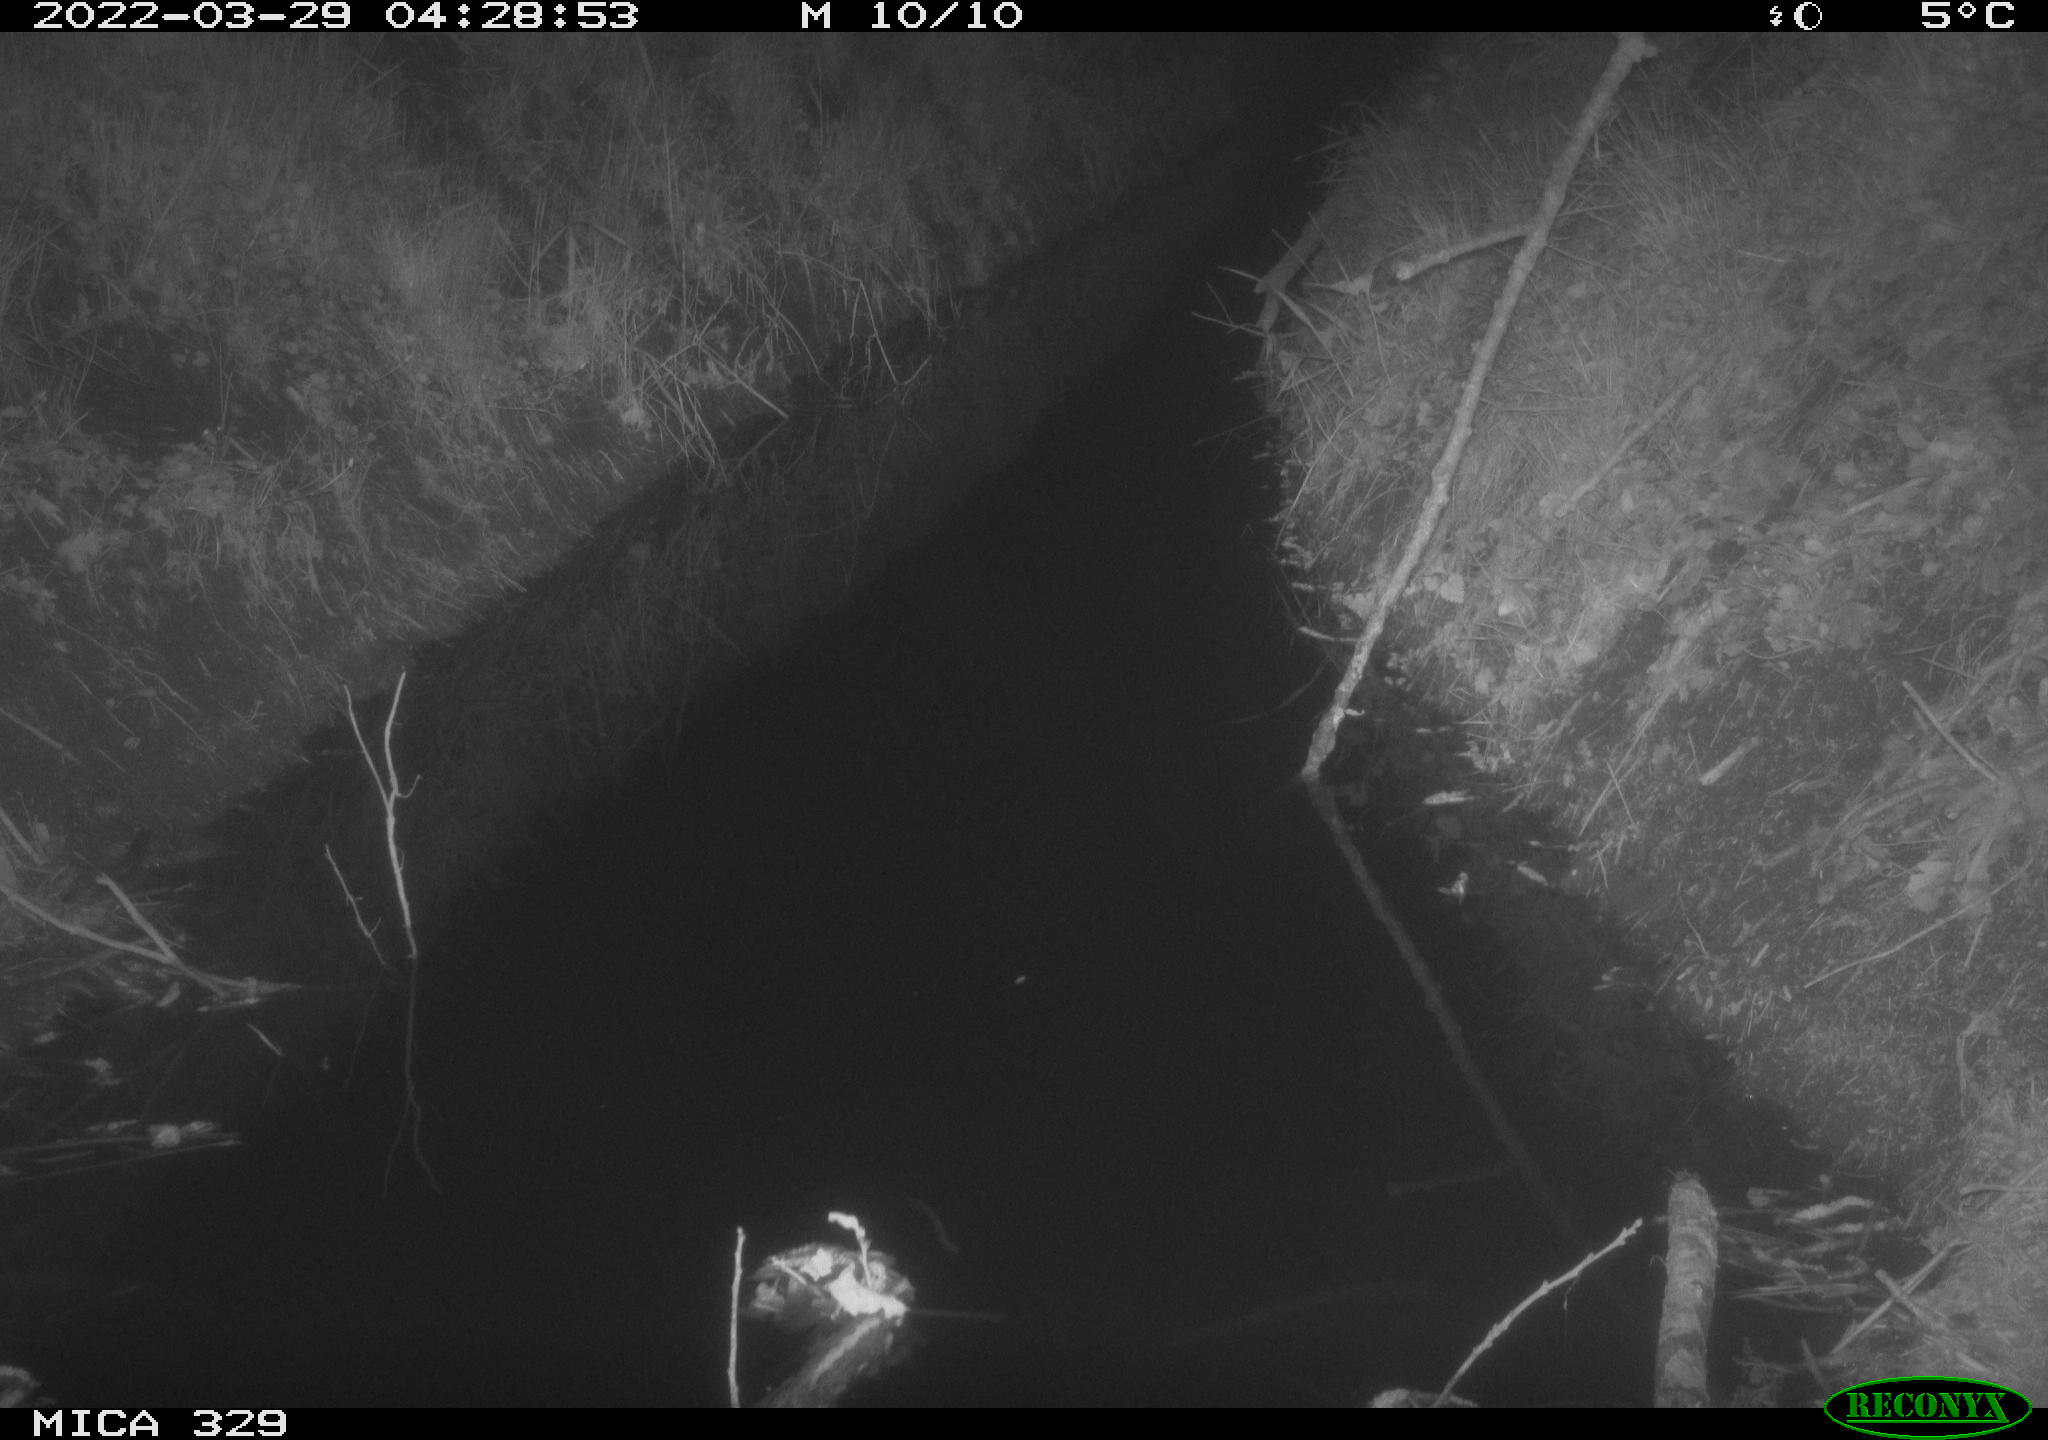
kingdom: Animalia
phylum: Chordata
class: Mammalia
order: Rodentia
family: Muridae
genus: Rattus
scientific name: Rattus norvegicus
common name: Brown rat
